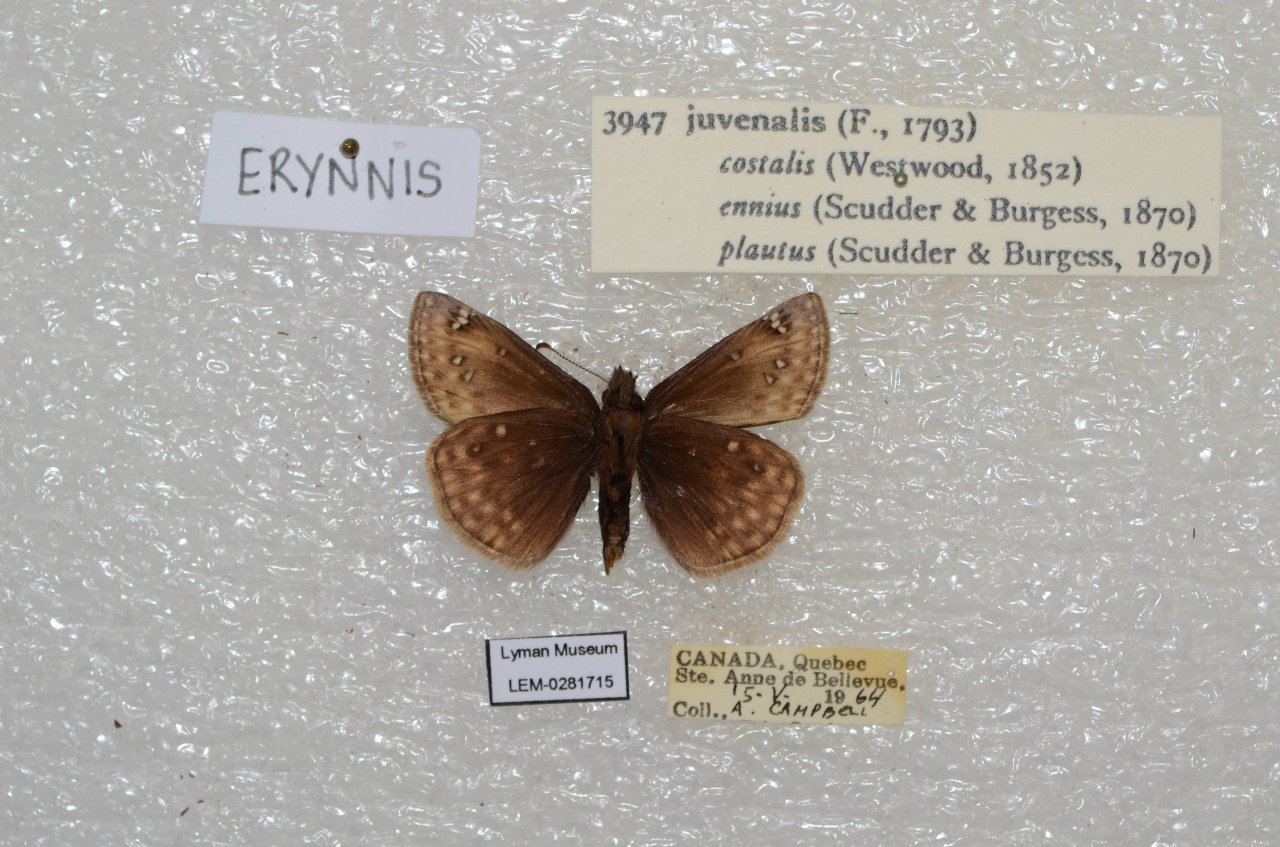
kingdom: Animalia
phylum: Arthropoda
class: Insecta
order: Lepidoptera
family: Hesperiidae
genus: Gesta
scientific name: Gesta
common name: Juvenal's Duskywing
